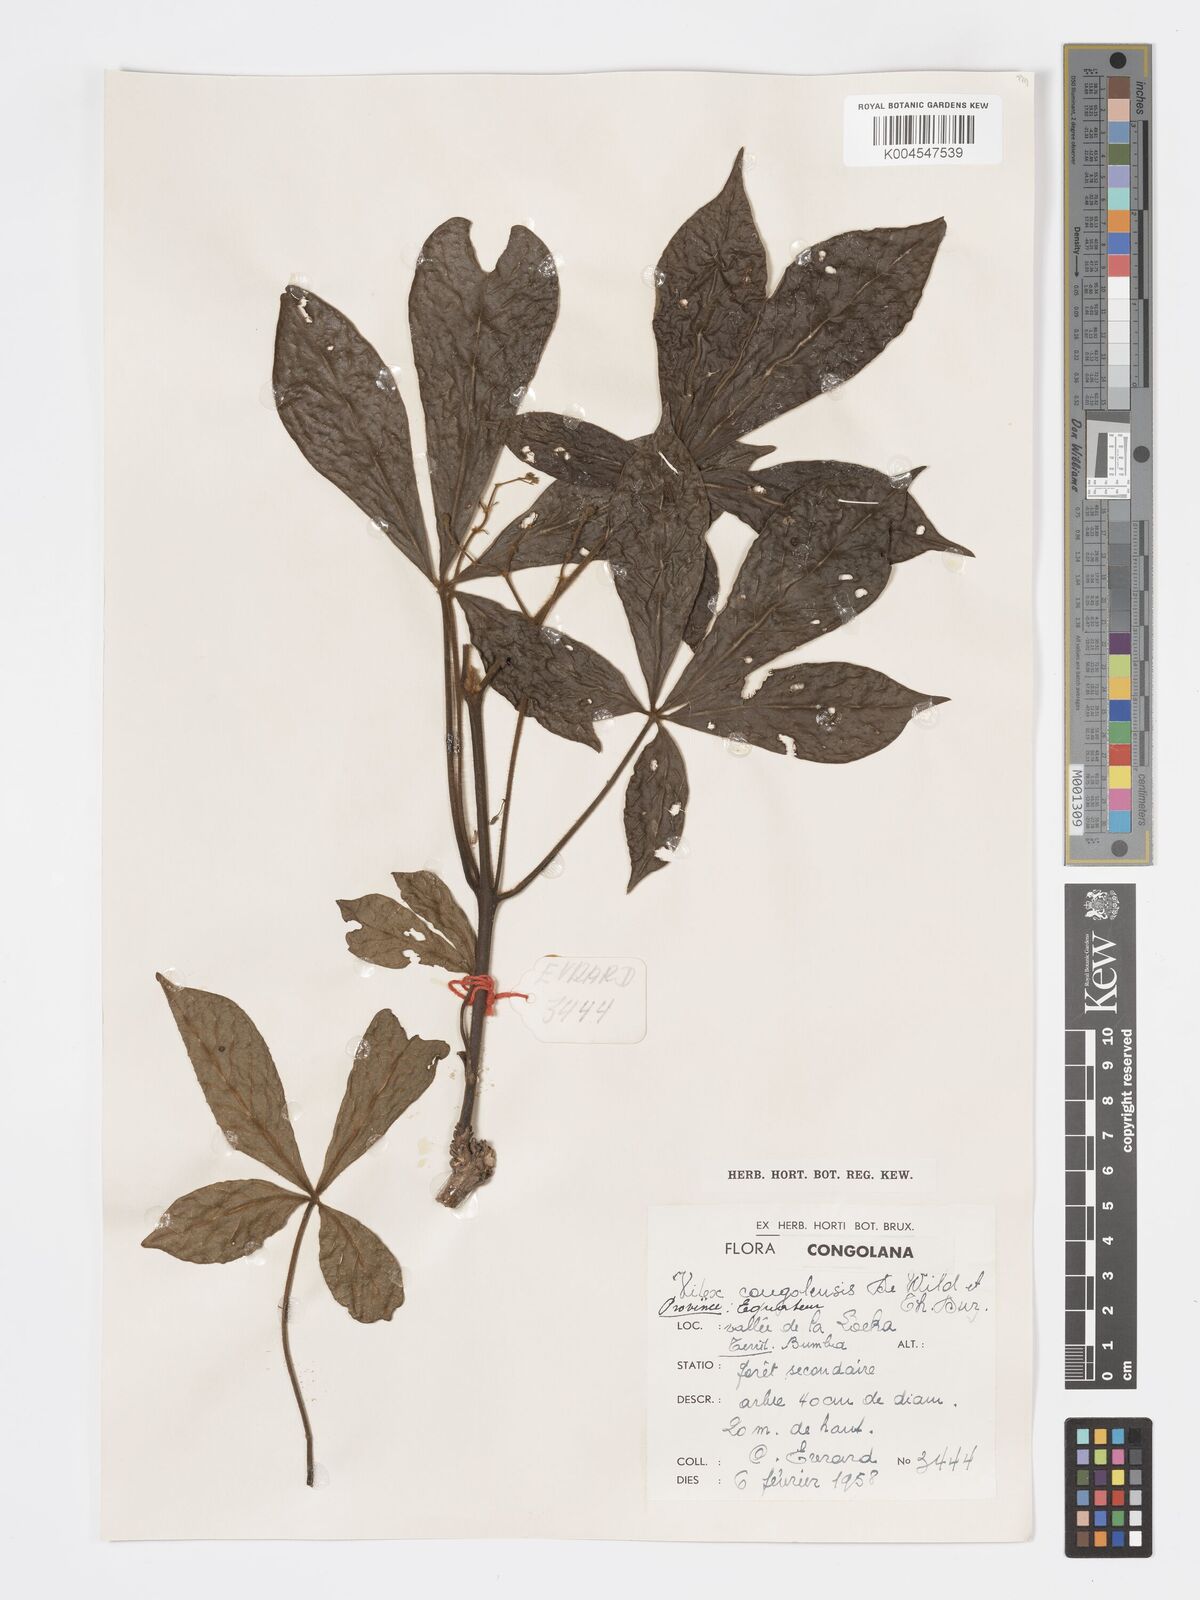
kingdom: Plantae
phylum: Tracheophyta
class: Magnoliopsida
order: Lamiales
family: Lamiaceae
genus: Vitex
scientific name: Vitex congolensis
